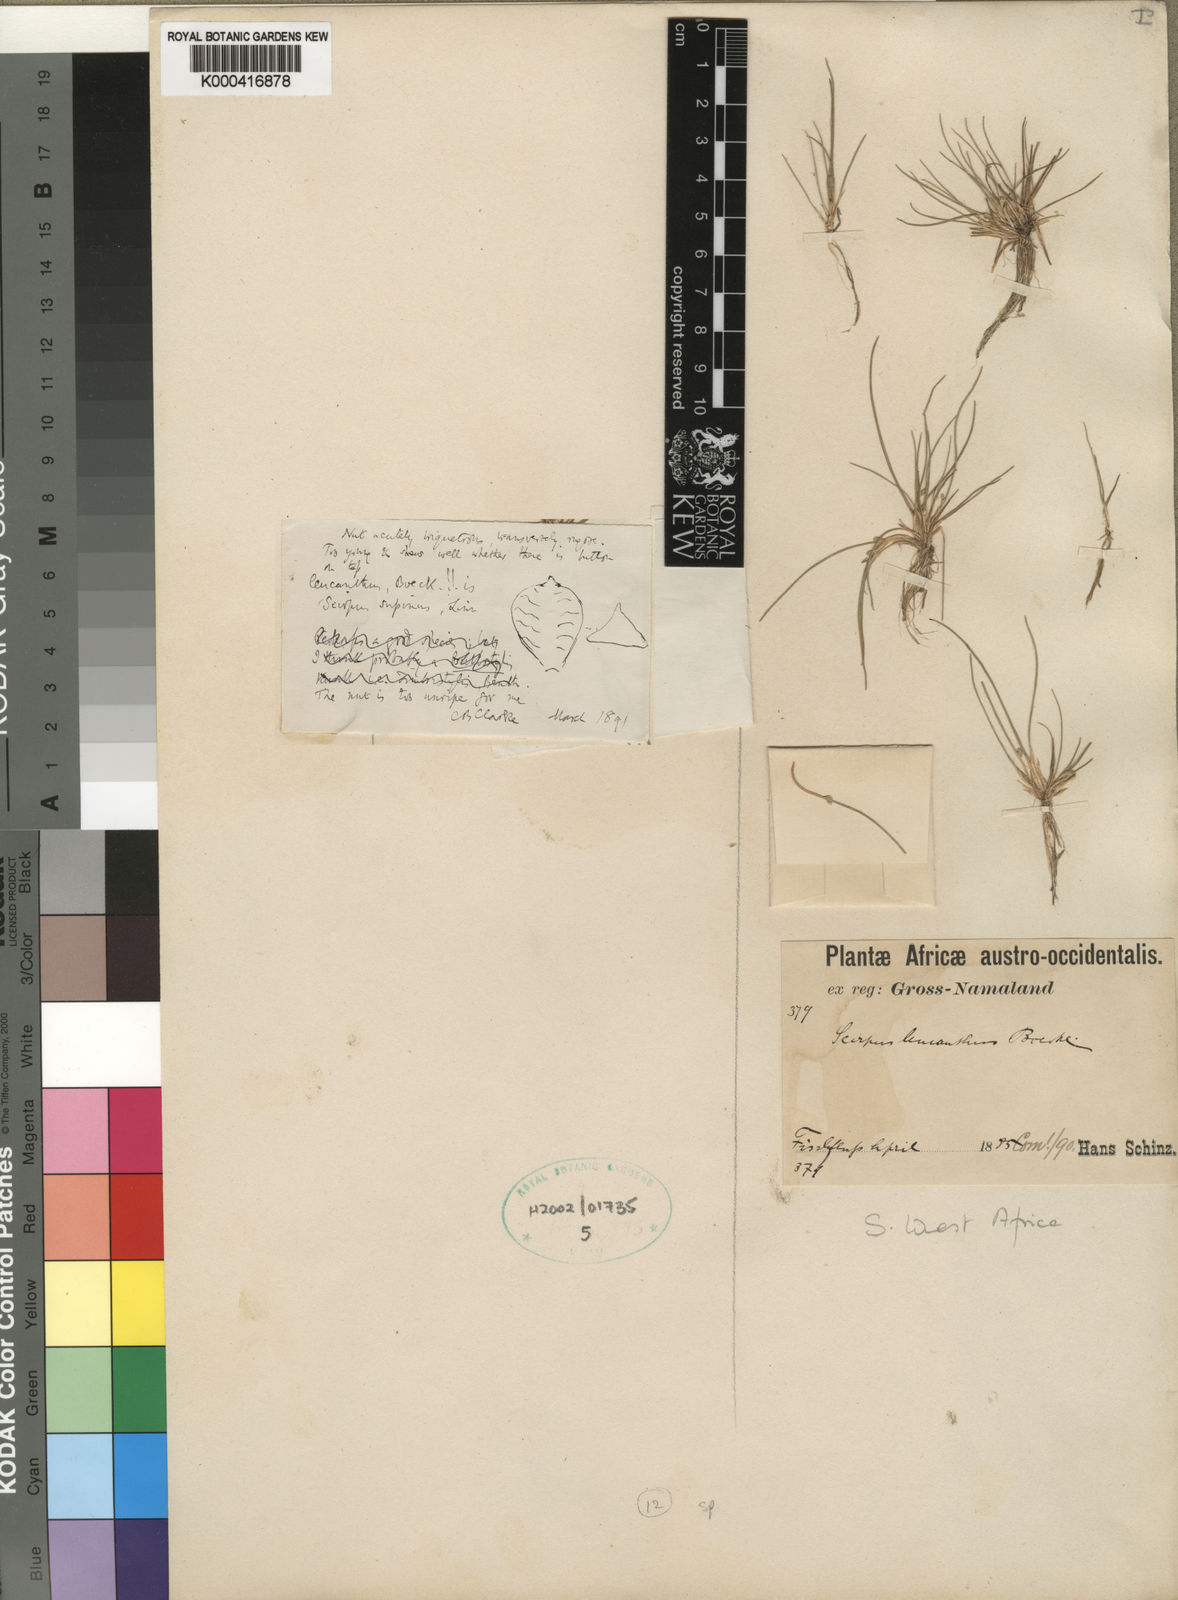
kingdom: Plantae
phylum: Tracheophyta
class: Liliopsida
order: Poales
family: Cyperaceae
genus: Schoenoplectiella
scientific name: Schoenoplectiella leucantha
